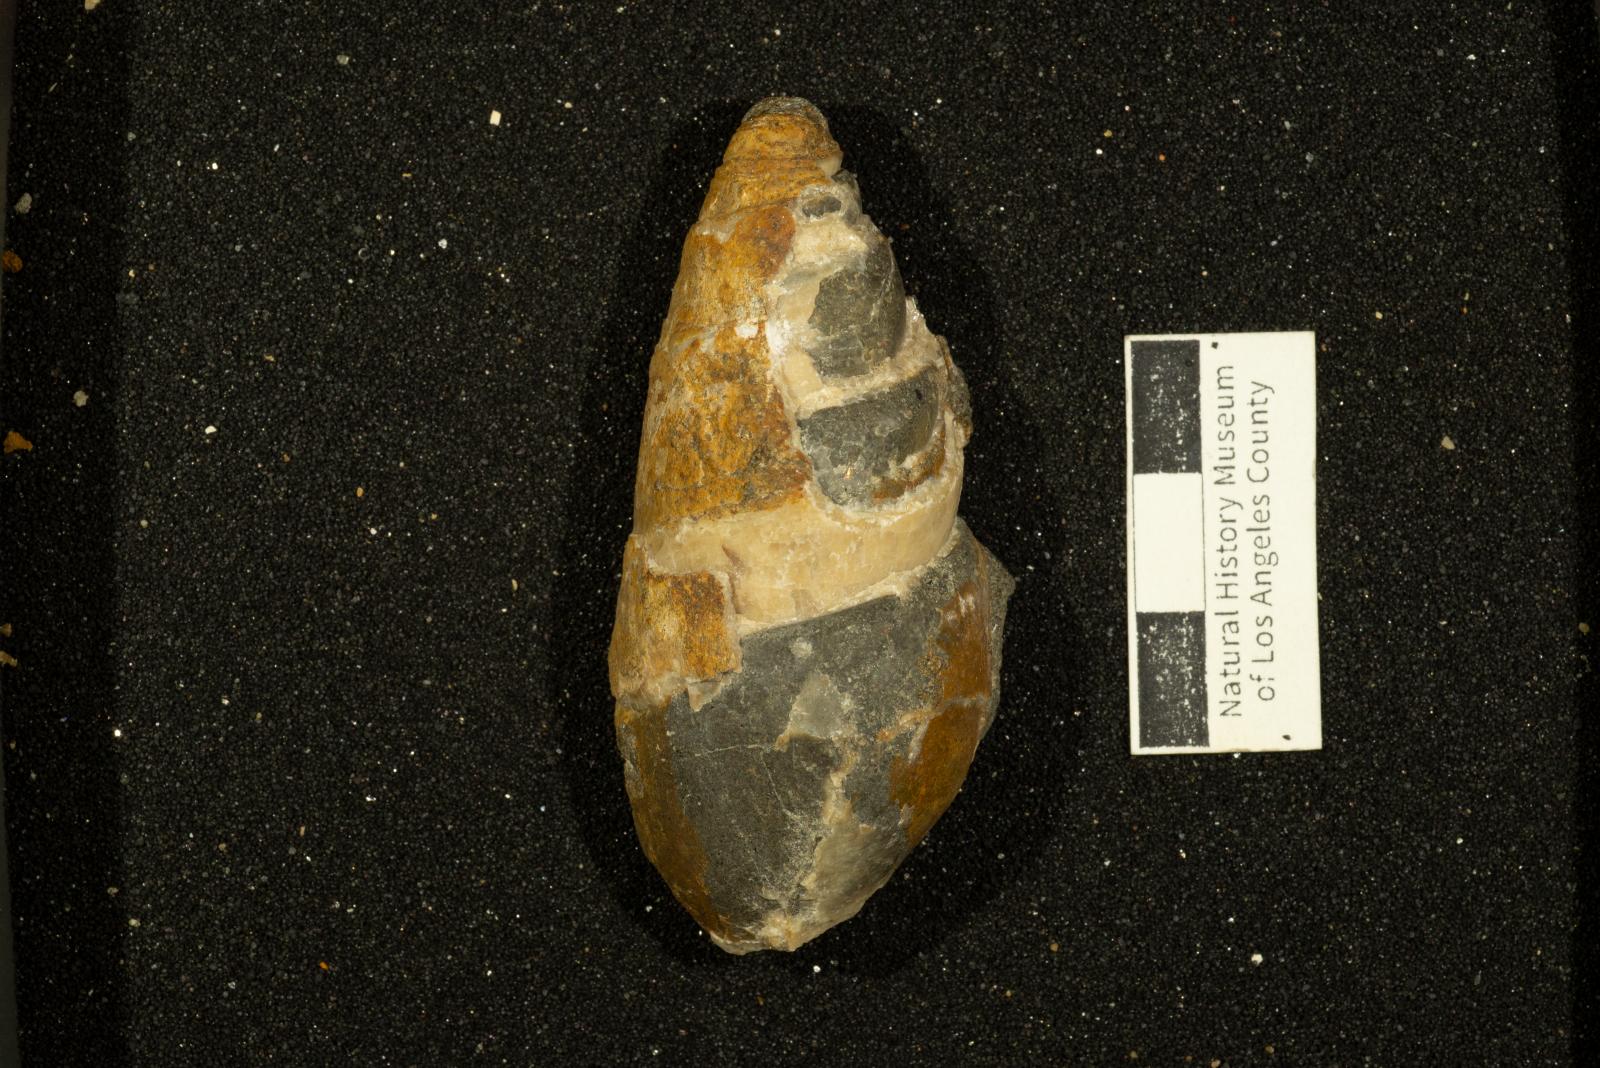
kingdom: Animalia
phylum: Mollusca
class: Gastropoda
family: Pseudomelaniidae
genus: Paosia
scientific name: Paosia Acteonina colusaensis
